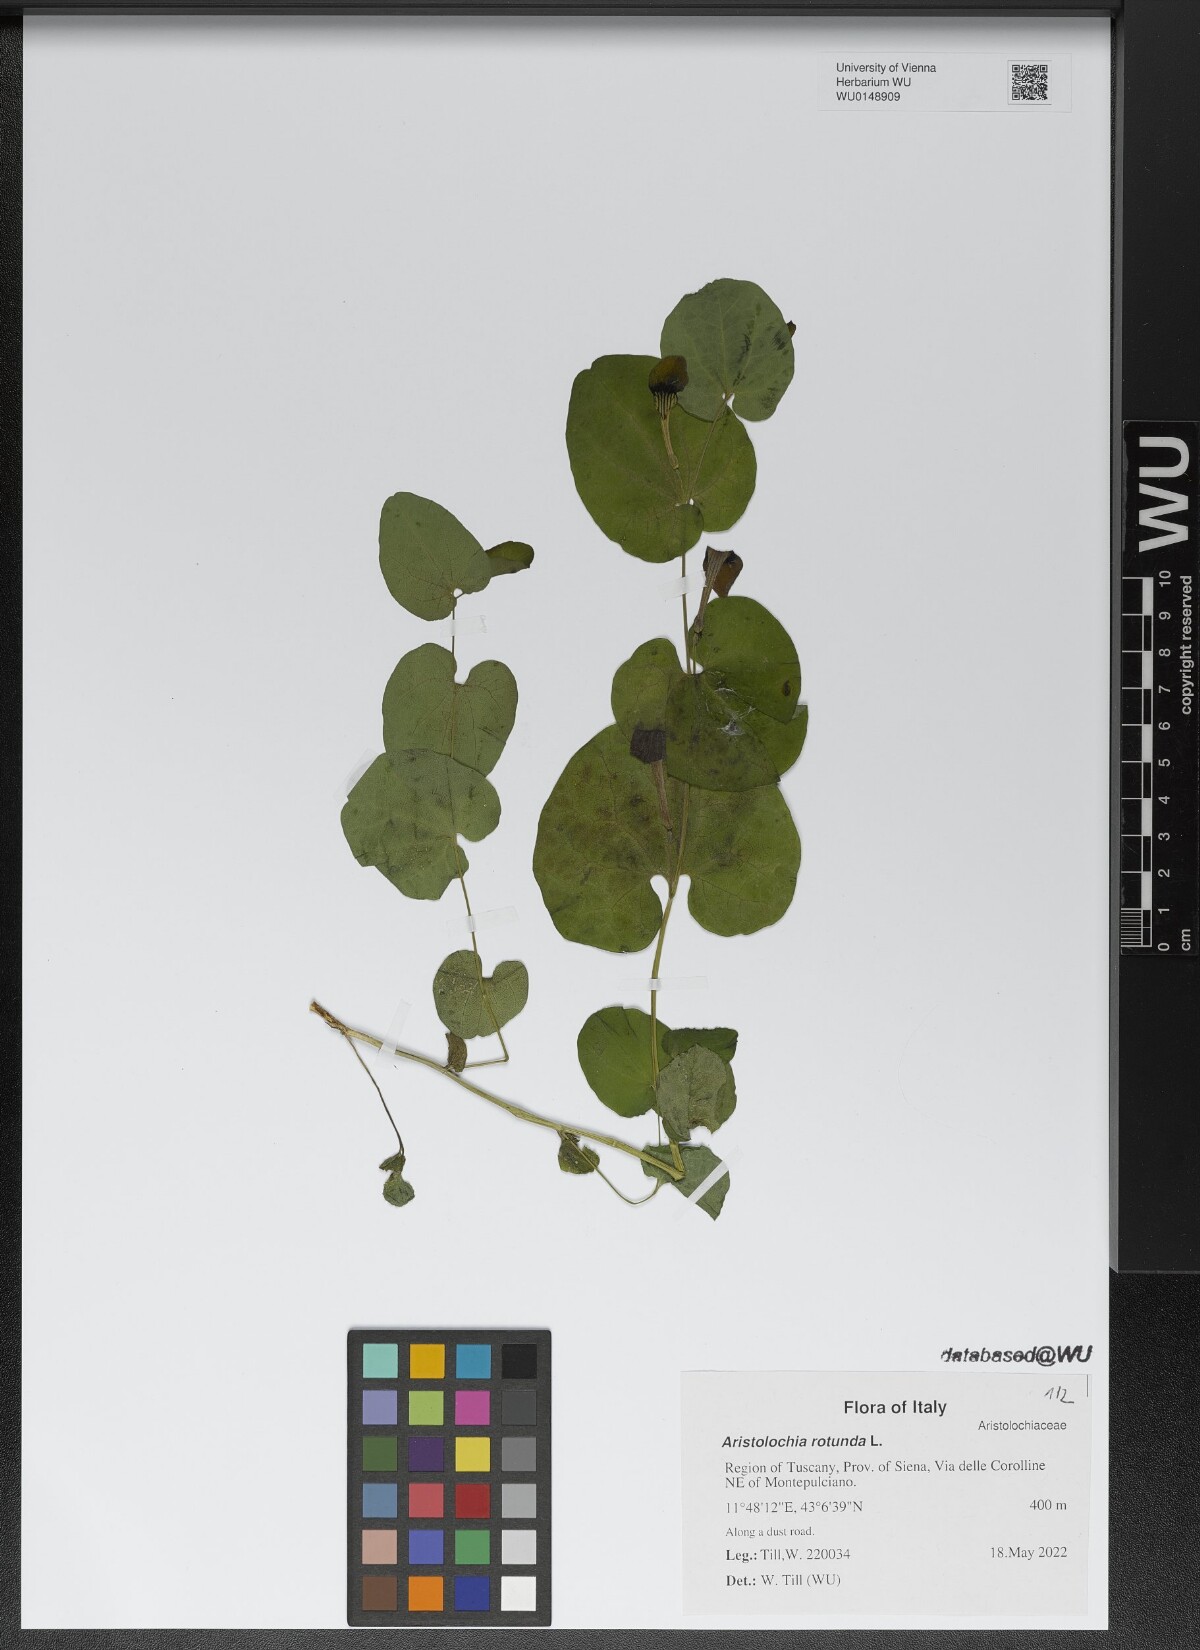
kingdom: Plantae
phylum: Tracheophyta
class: Magnoliopsida
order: Piperales
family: Aristolochiaceae
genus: Aristolochia
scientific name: Aristolochia rotunda
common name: Smearwort
